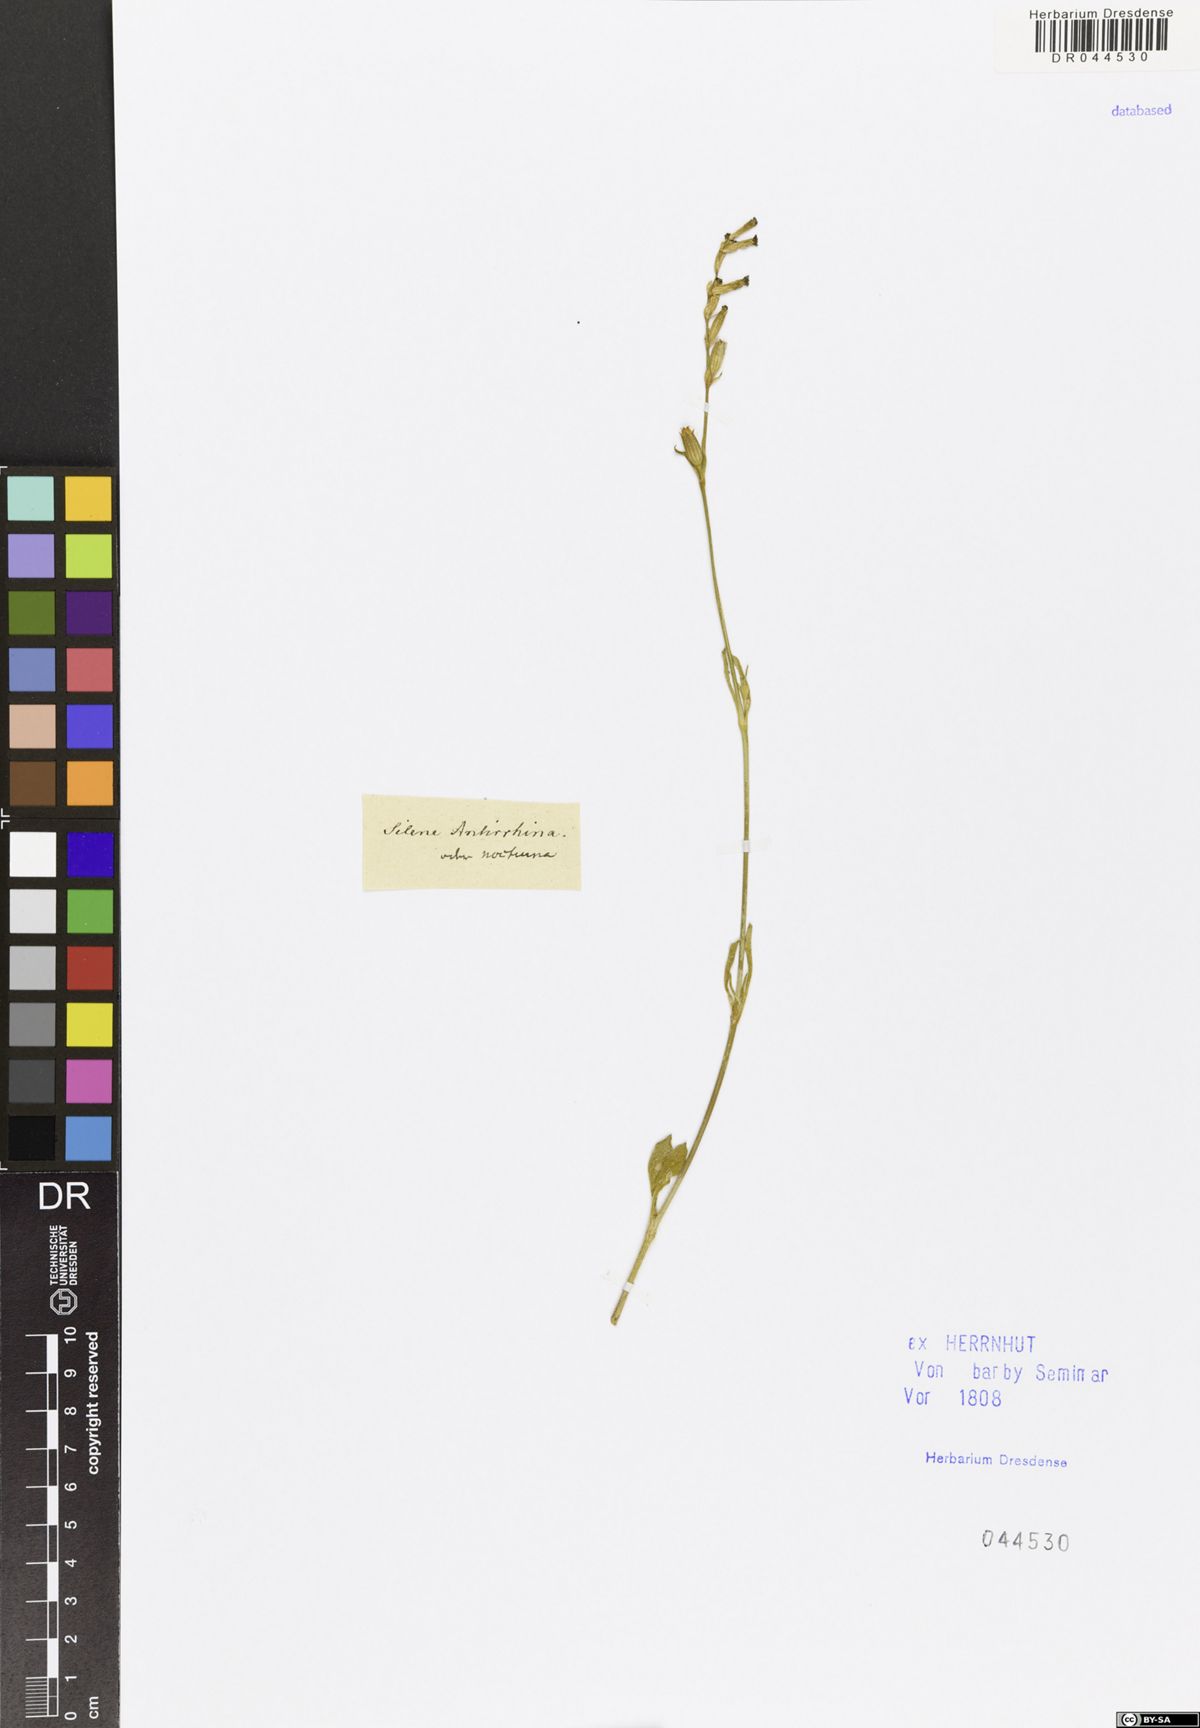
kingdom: Plantae
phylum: Tracheophyta
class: Magnoliopsida
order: Caryophyllales
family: Caryophyllaceae
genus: Silene
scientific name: Silene antirrhina
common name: Sleepy catchfly
